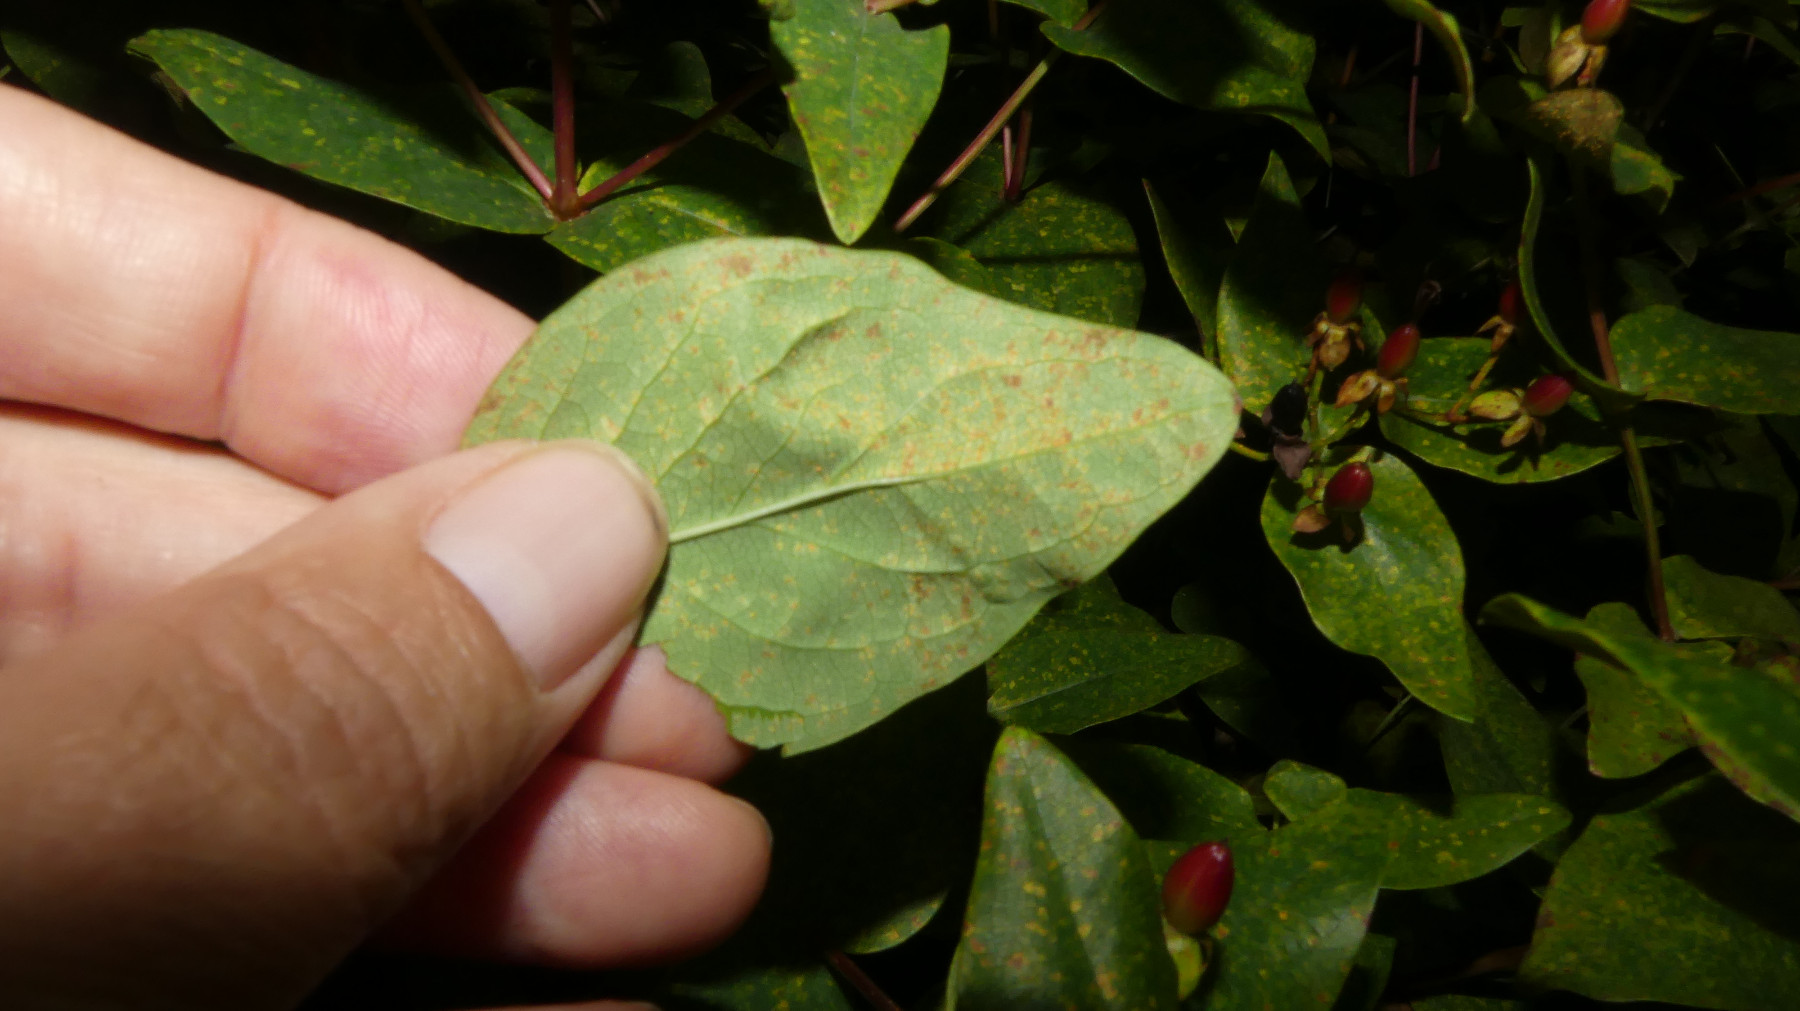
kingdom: Fungi
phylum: Basidiomycota
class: Pucciniomycetes
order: Pucciniales
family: Melampsoraceae
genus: Melampsora
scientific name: Melampsora hypericorum
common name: Tutsan rust
